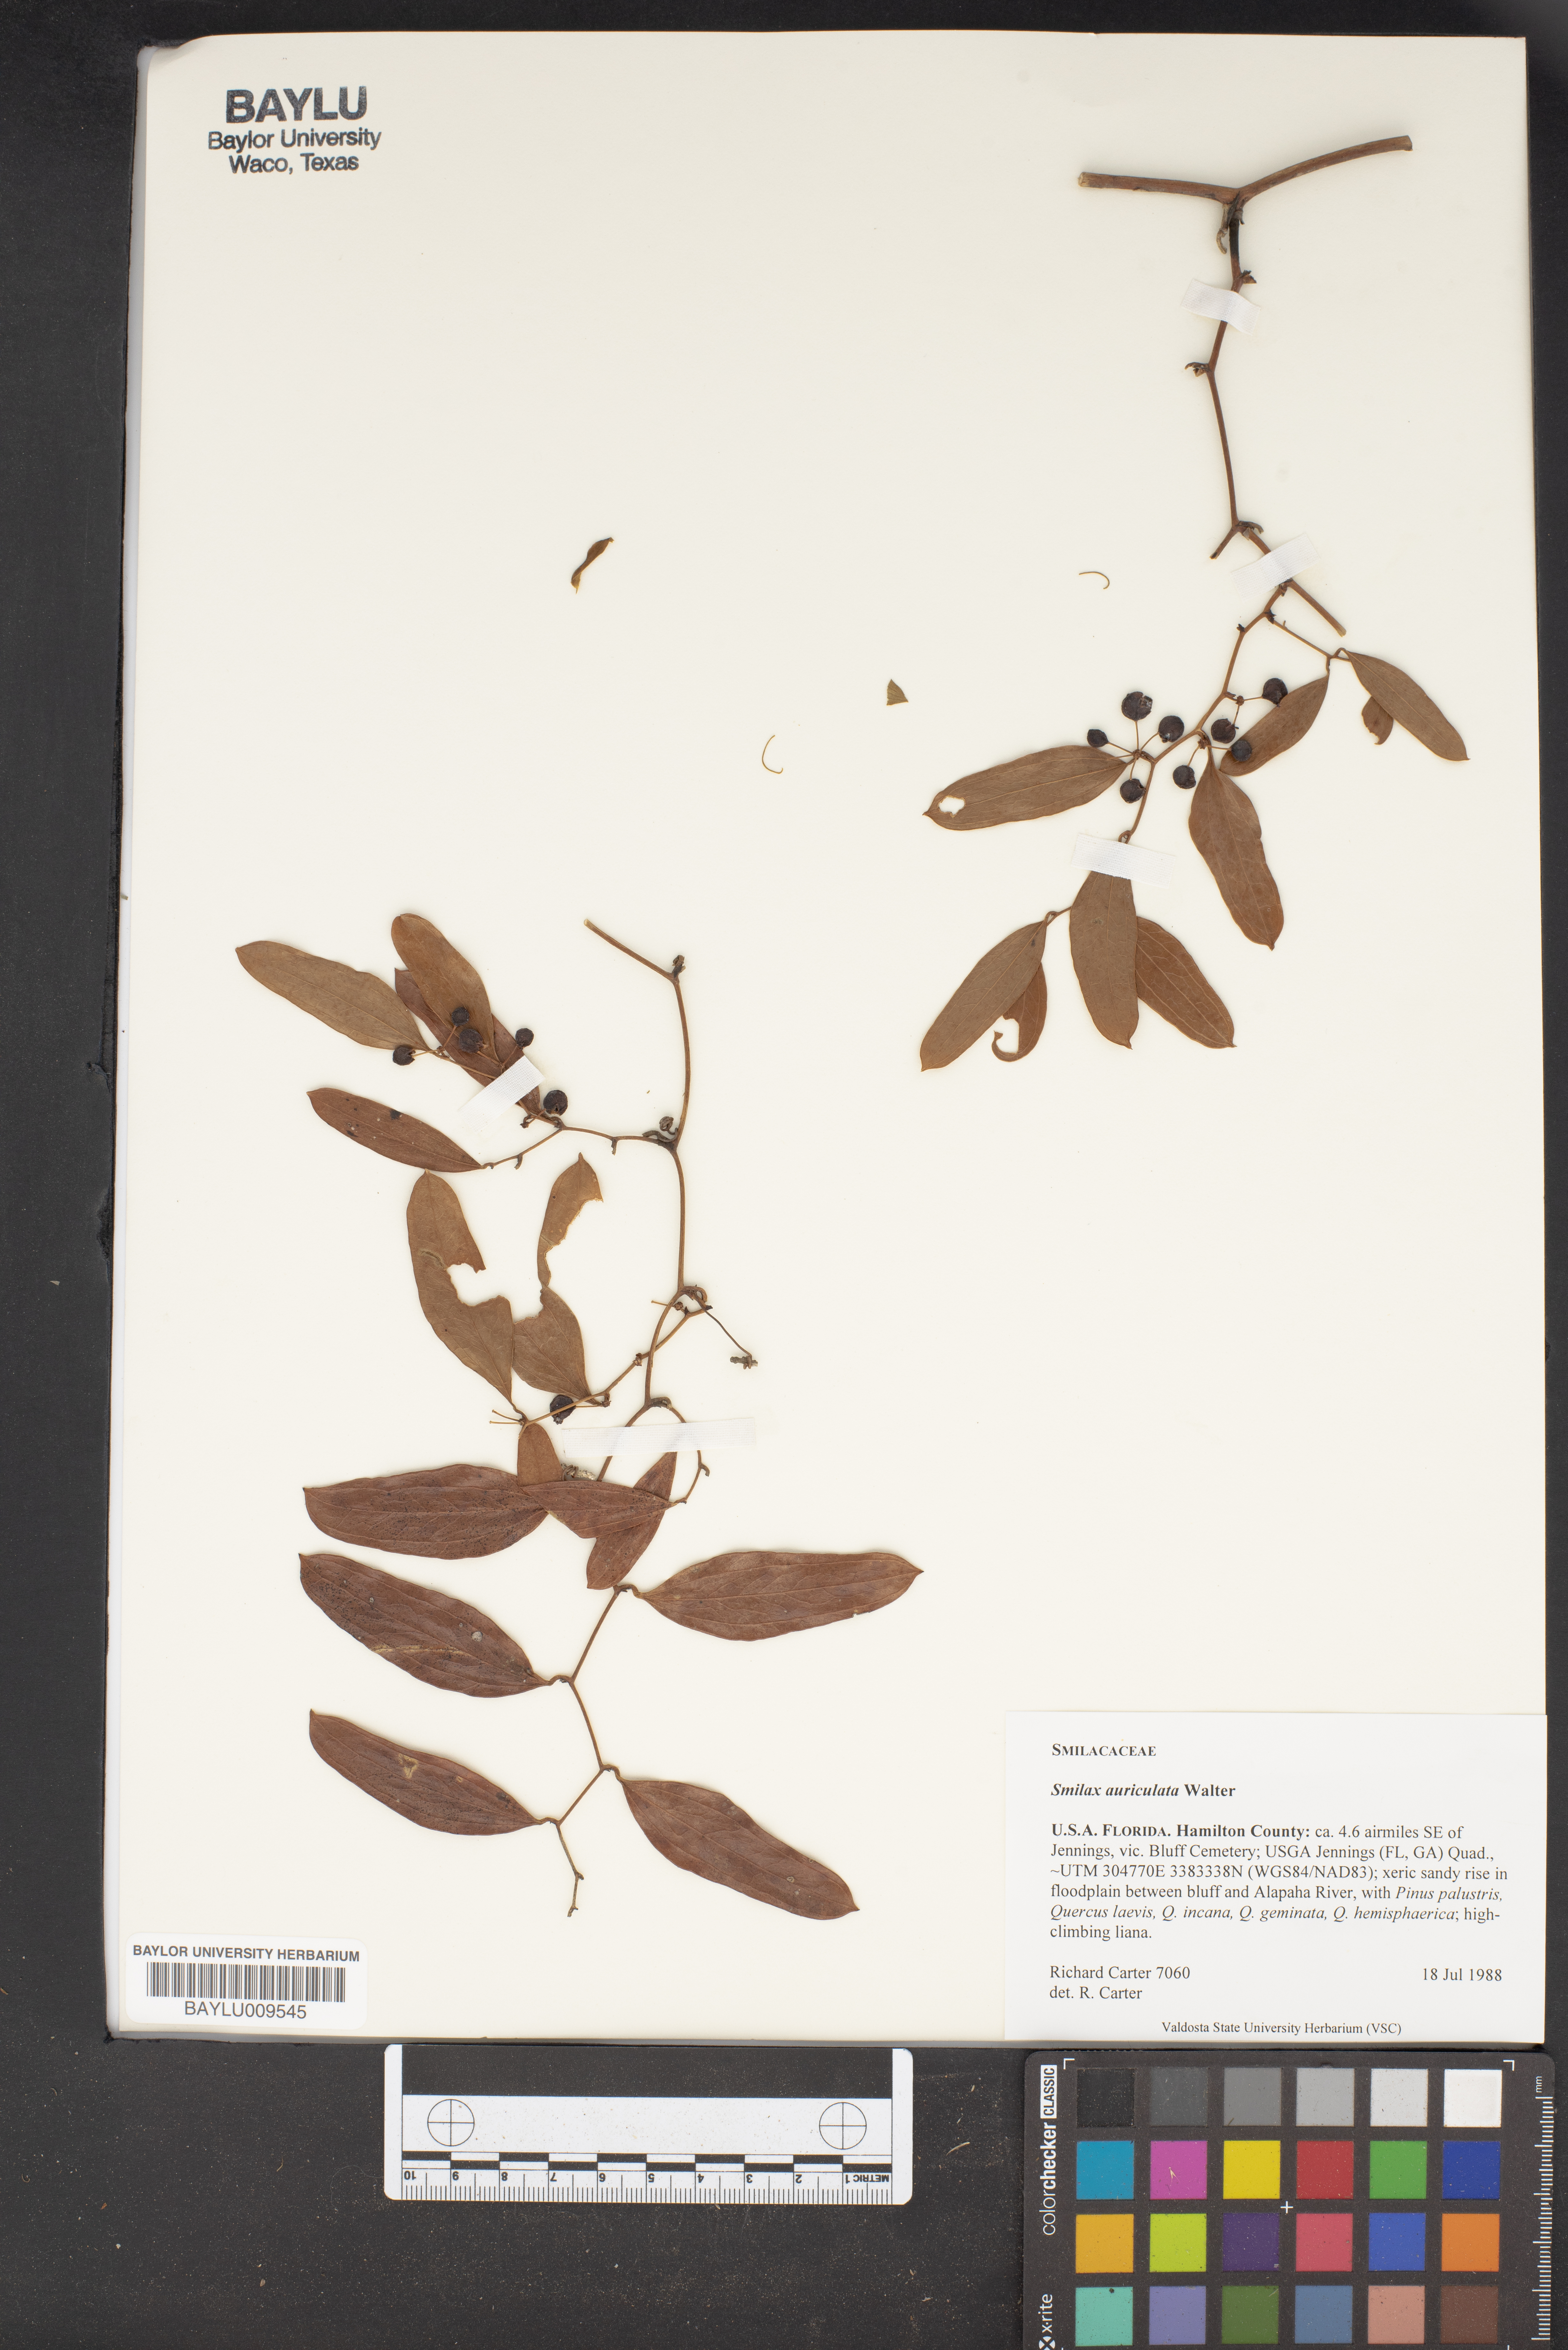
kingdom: Plantae
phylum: Tracheophyta
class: Liliopsida
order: Liliales
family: Smilacaceae
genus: Smilax
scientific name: Smilax auriculata
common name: Wild bamboo
